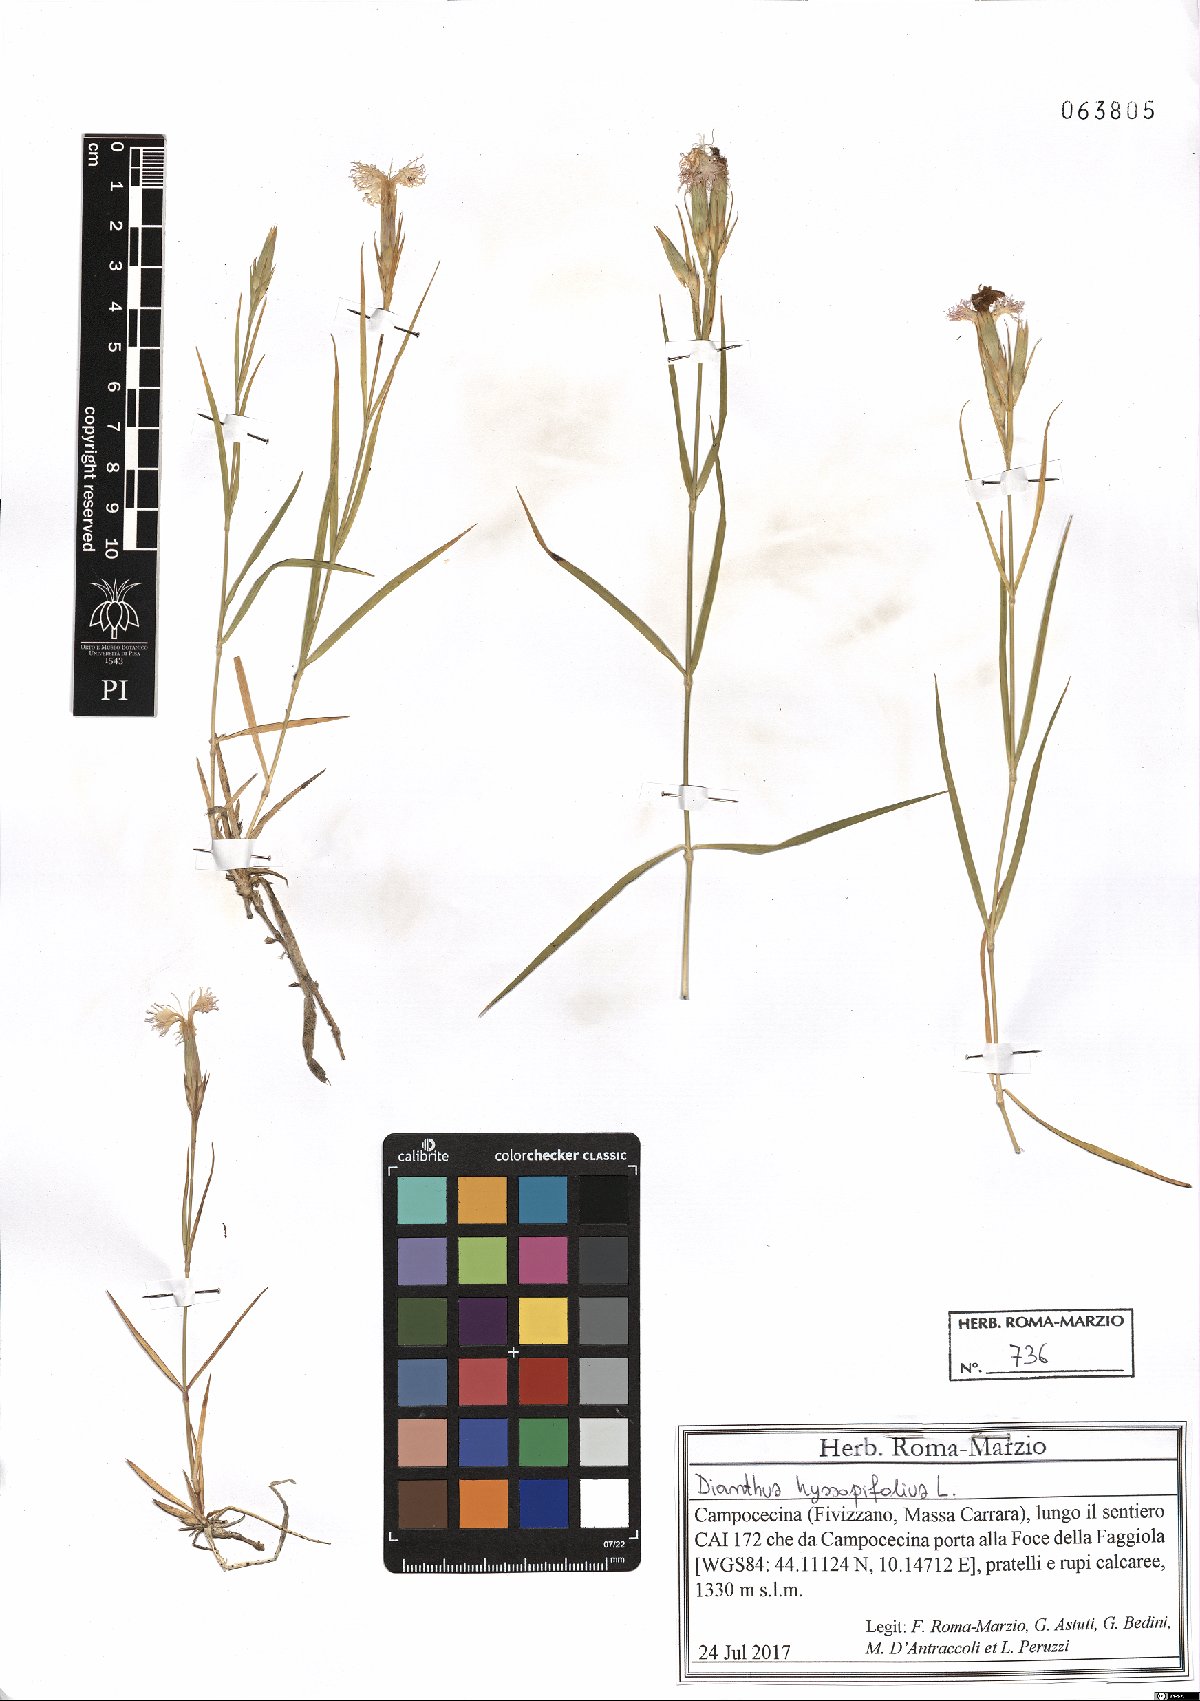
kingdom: Plantae
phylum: Tracheophyta
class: Magnoliopsida
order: Caryophyllales
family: Caryophyllaceae
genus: Dianthus
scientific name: Dianthus hyssopifolius
